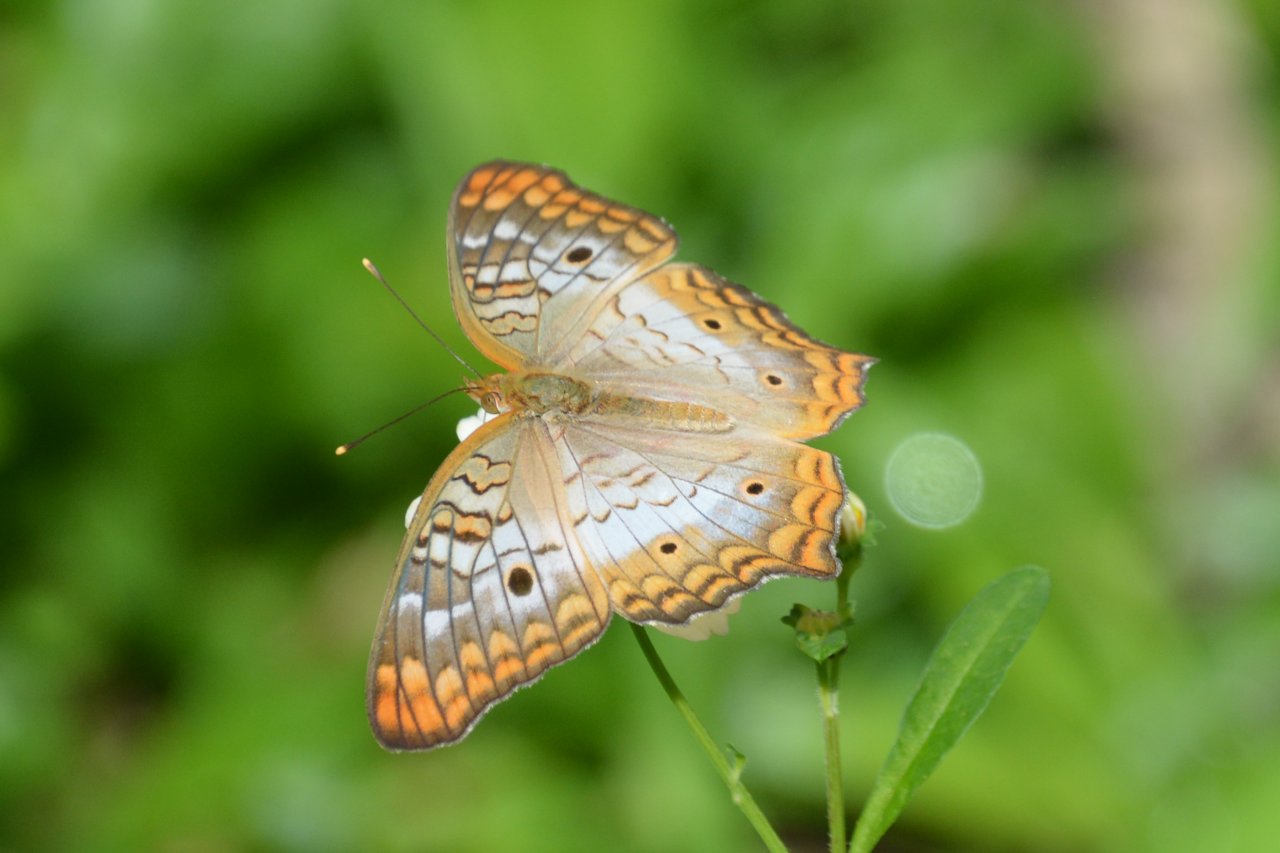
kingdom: Animalia
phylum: Arthropoda
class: Insecta
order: Lepidoptera
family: Nymphalidae
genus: Anartia
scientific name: Anartia jatrophae
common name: White Peacock
